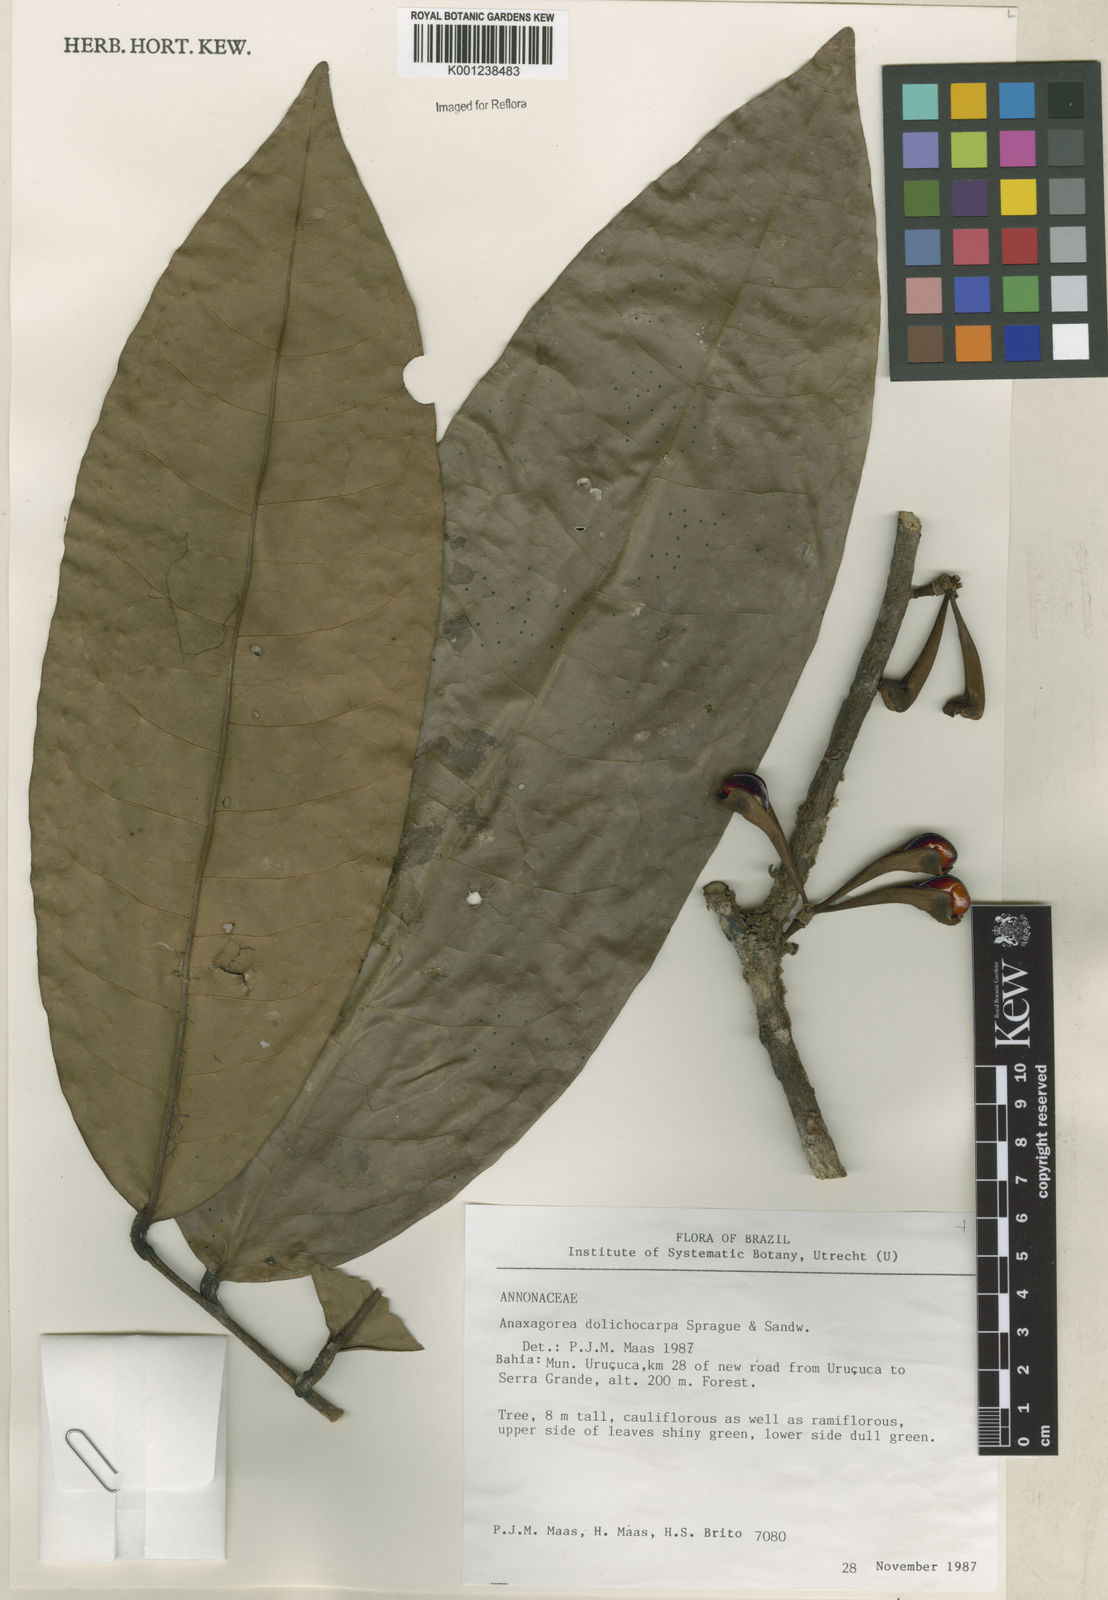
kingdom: Plantae
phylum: Tracheophyta
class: Magnoliopsida
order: Magnoliales
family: Annonaceae
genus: Anaxagorea
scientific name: Anaxagorea dolichocarpa
